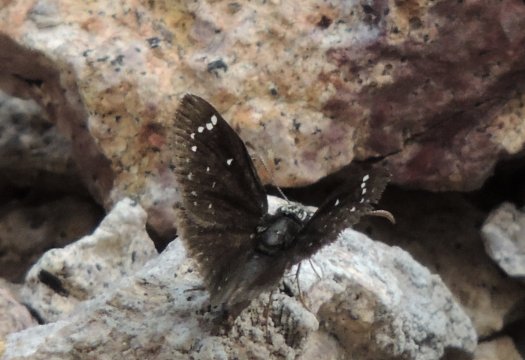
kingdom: Animalia
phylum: Arthropoda
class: Insecta
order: Lepidoptera
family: Hesperiidae
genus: Pholisora
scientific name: Pholisora catullus
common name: Common Sootywing
